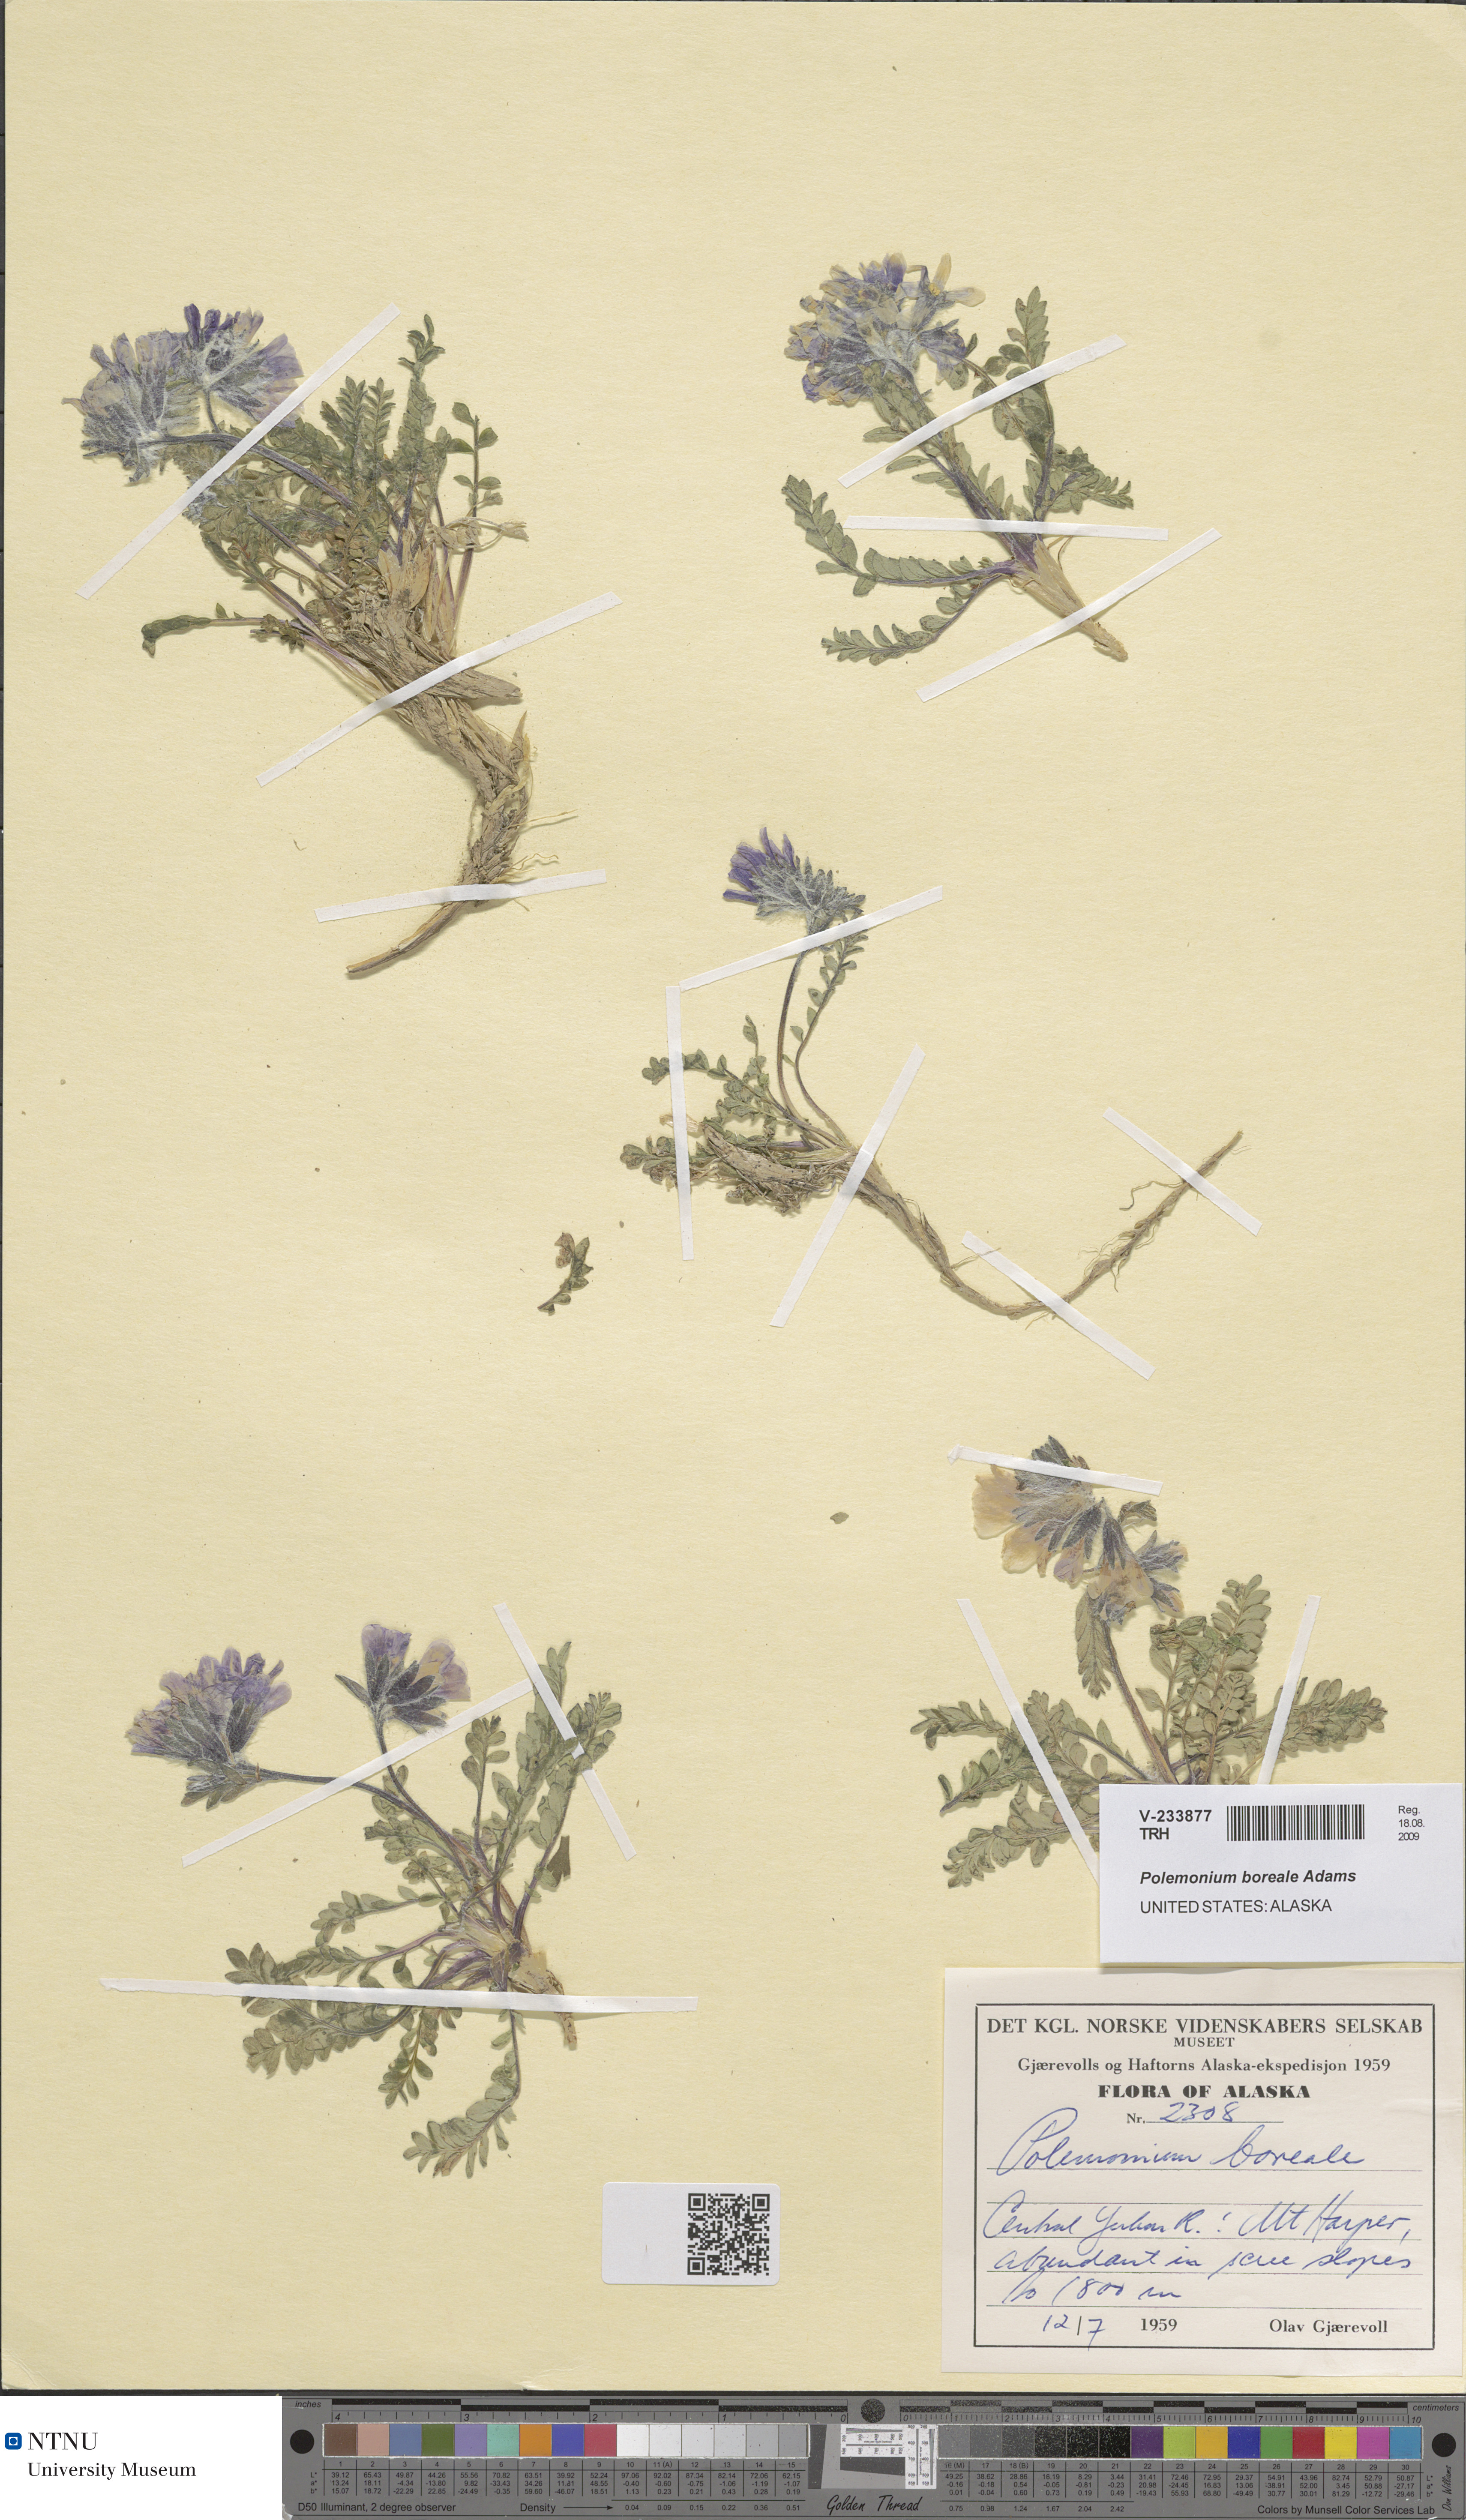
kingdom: Plantae
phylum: Tracheophyta
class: Magnoliopsida
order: Ericales
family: Polemoniaceae
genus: Polemonium
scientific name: Polemonium boreale
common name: Boreal jacob's-ladder
